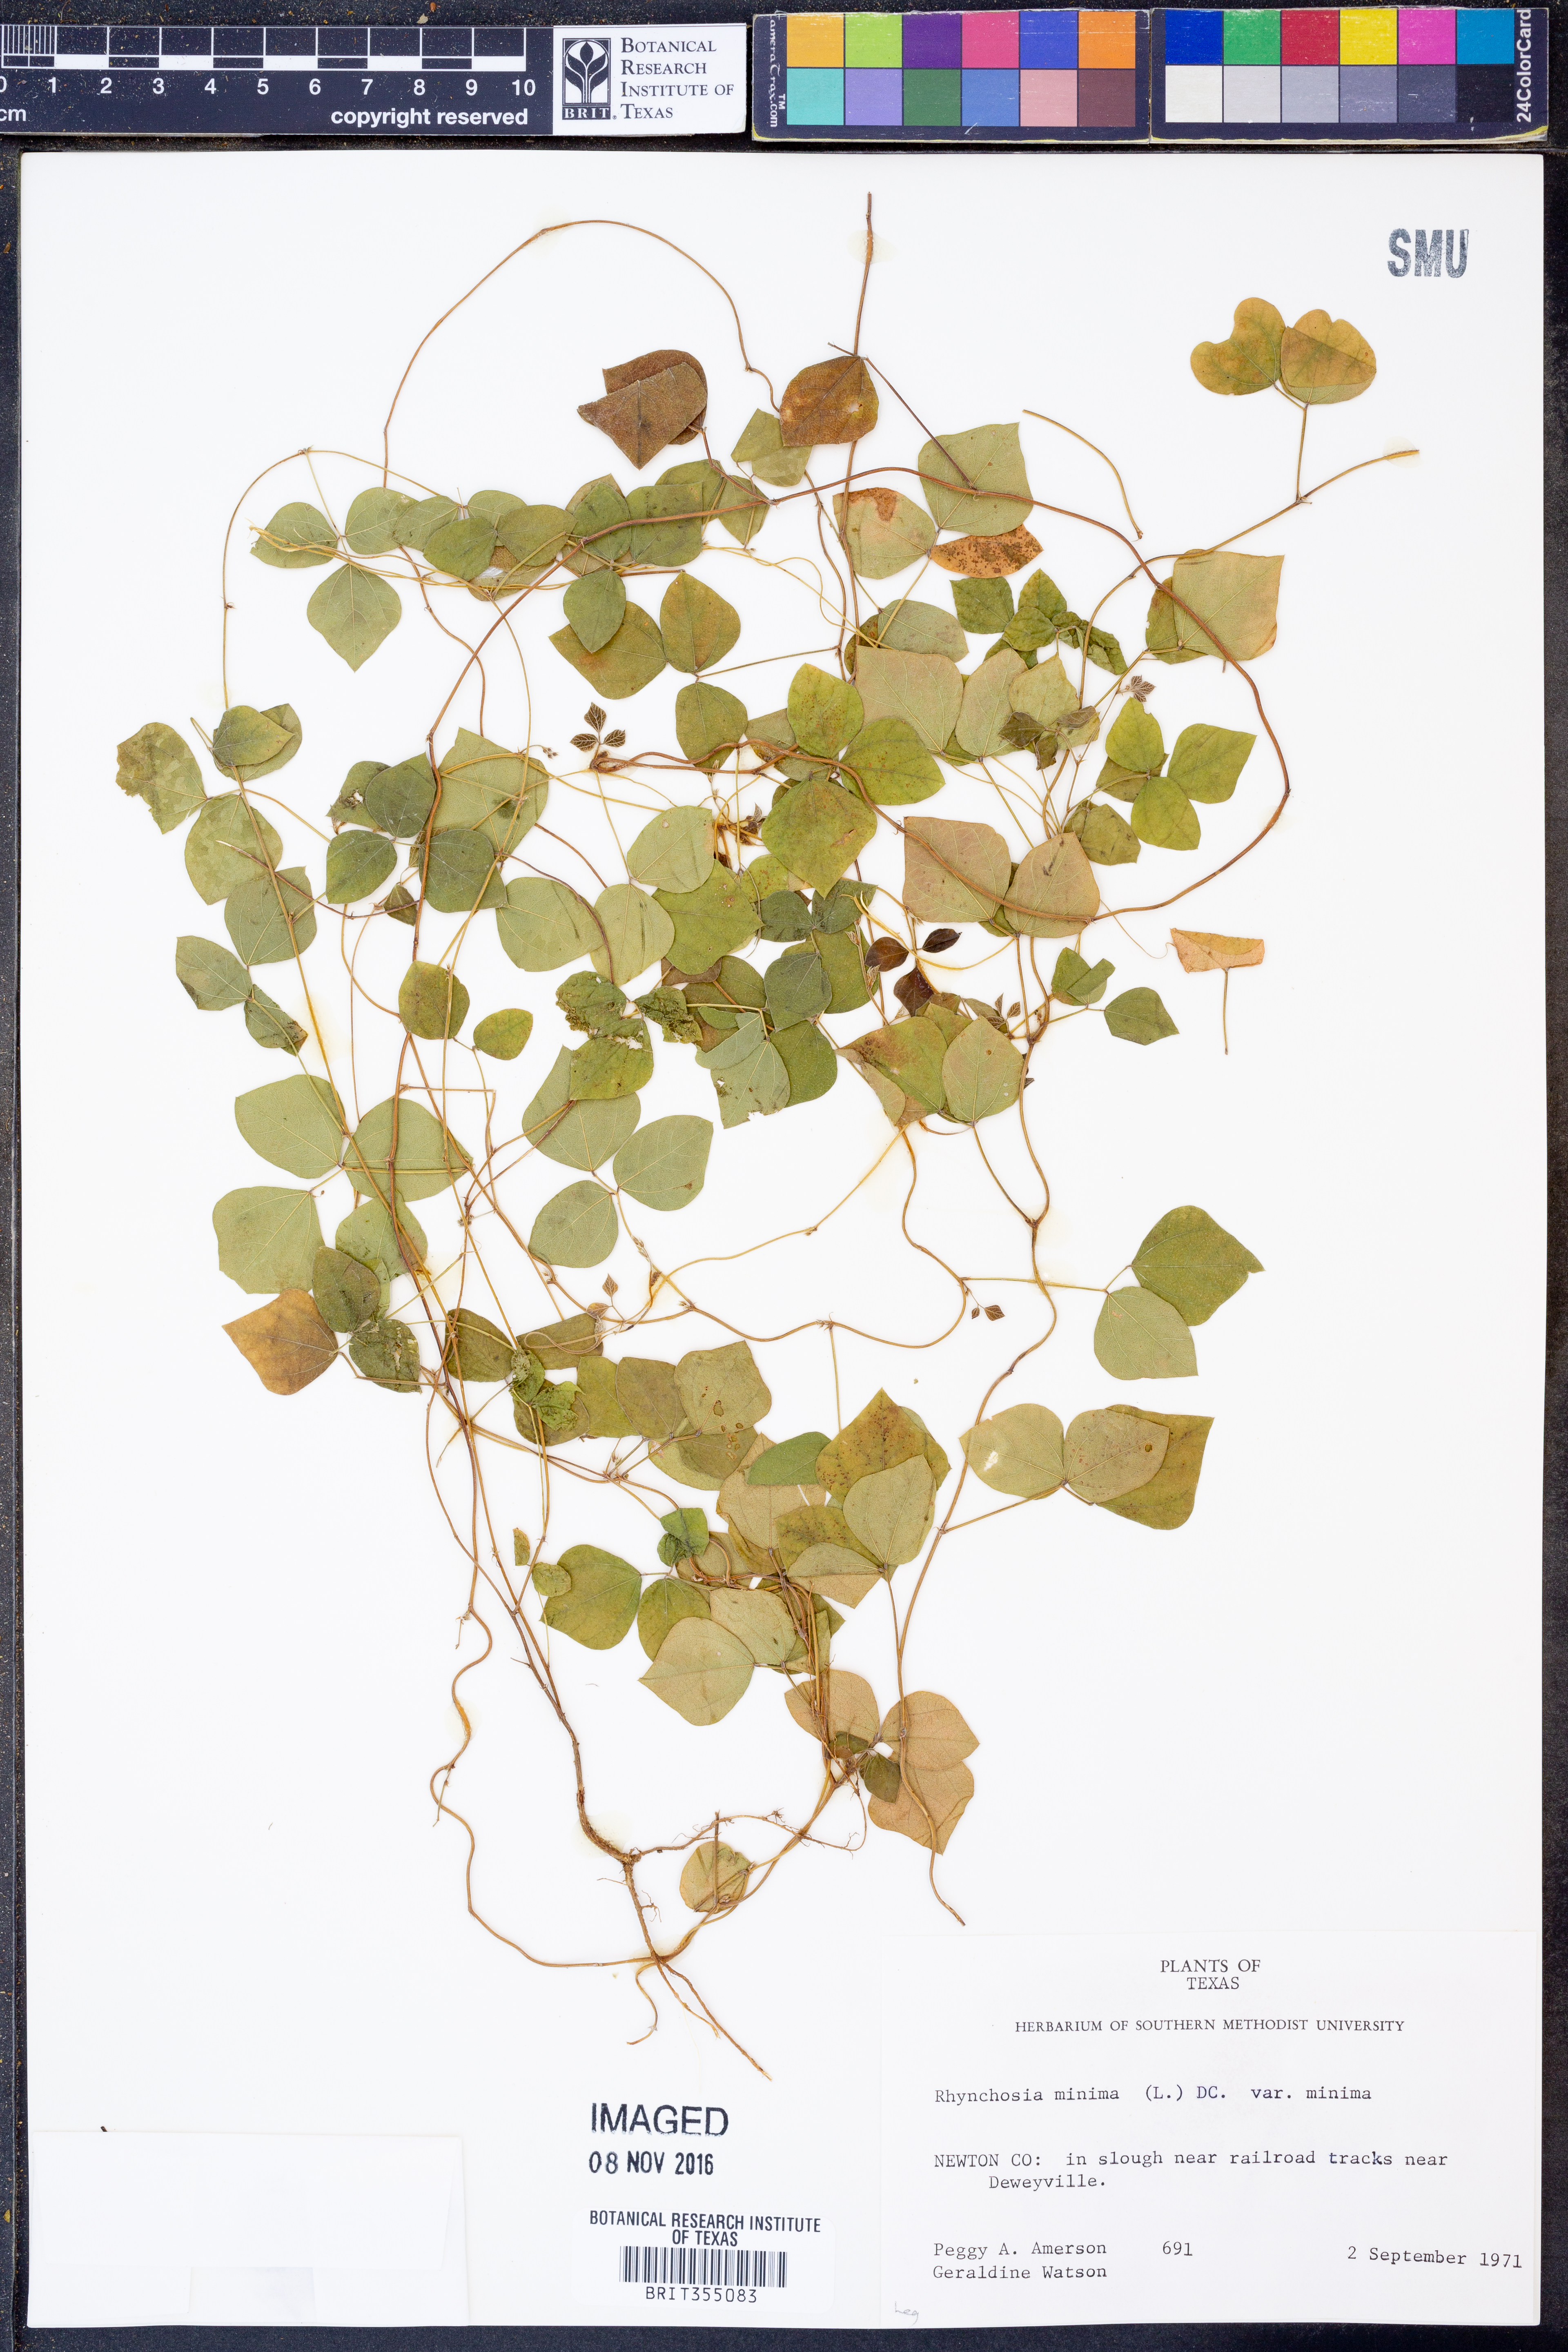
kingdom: Plantae
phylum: Tracheophyta
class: Magnoliopsida
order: Fabales
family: Fabaceae
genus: Rhynchosia
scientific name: Rhynchosia minima
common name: Least snoutbean
